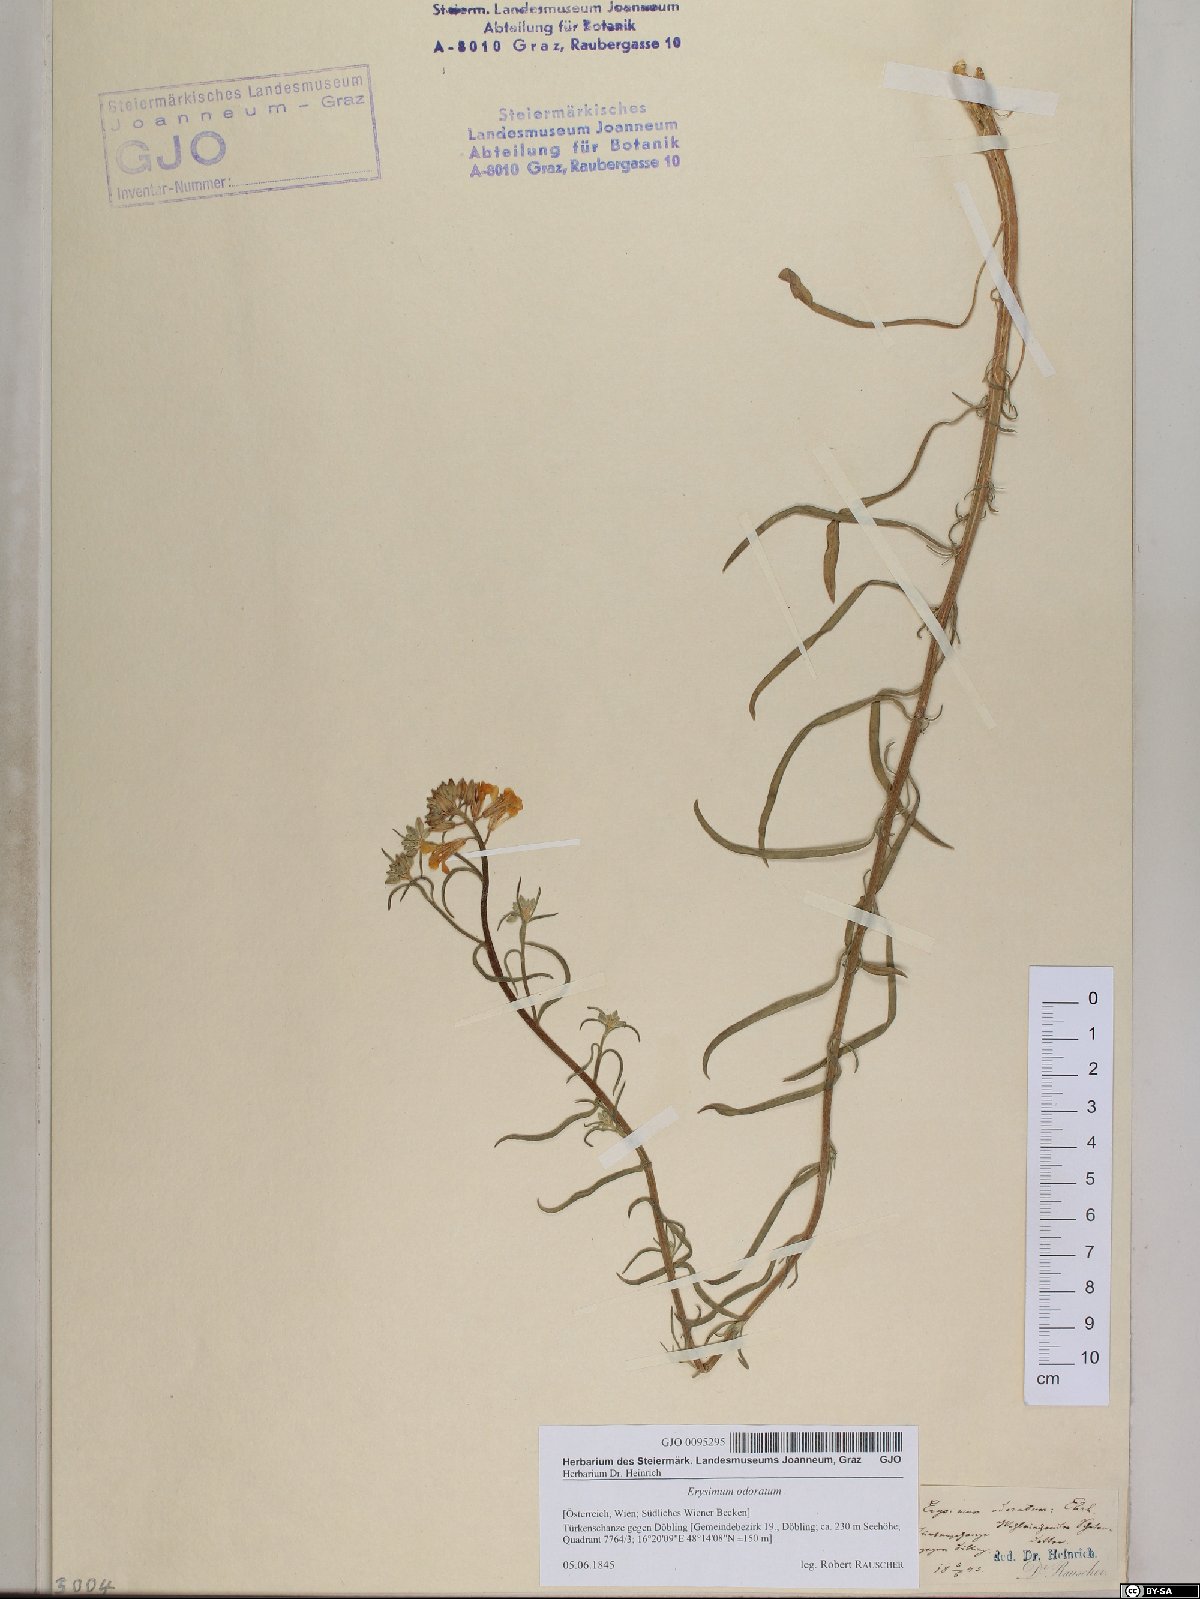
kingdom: Plantae
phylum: Tracheophyta
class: Magnoliopsida
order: Brassicales
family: Brassicaceae
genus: Erysimum
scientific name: Erysimum odoratum
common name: Smelly wallflower
